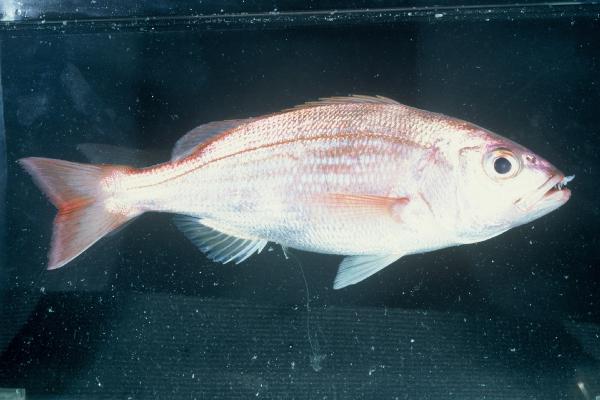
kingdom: Animalia
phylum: Chordata
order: Perciformes
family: Sparidae
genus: Argyrozona
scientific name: Argyrozona argyrozona
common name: Carpenter
